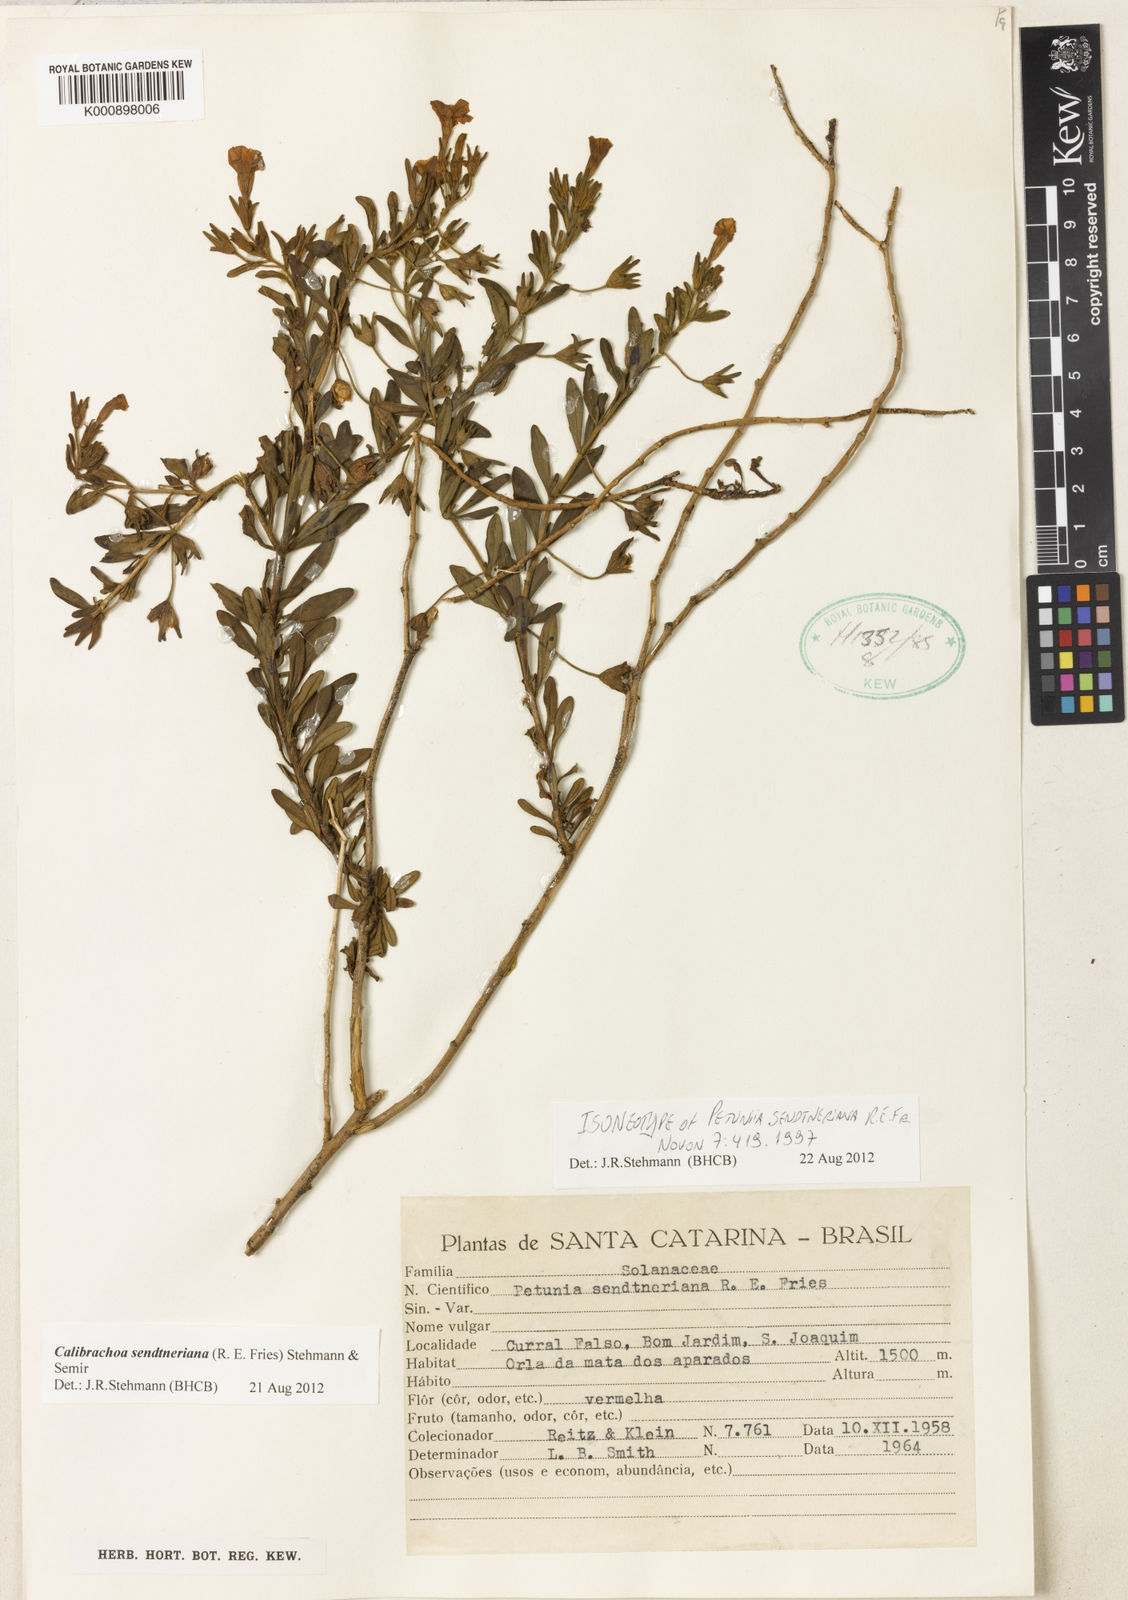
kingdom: Plantae
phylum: Tracheophyta
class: Magnoliopsida
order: Solanales
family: Solanaceae
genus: Calibrachoa
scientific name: Calibrachoa sendtneriana
